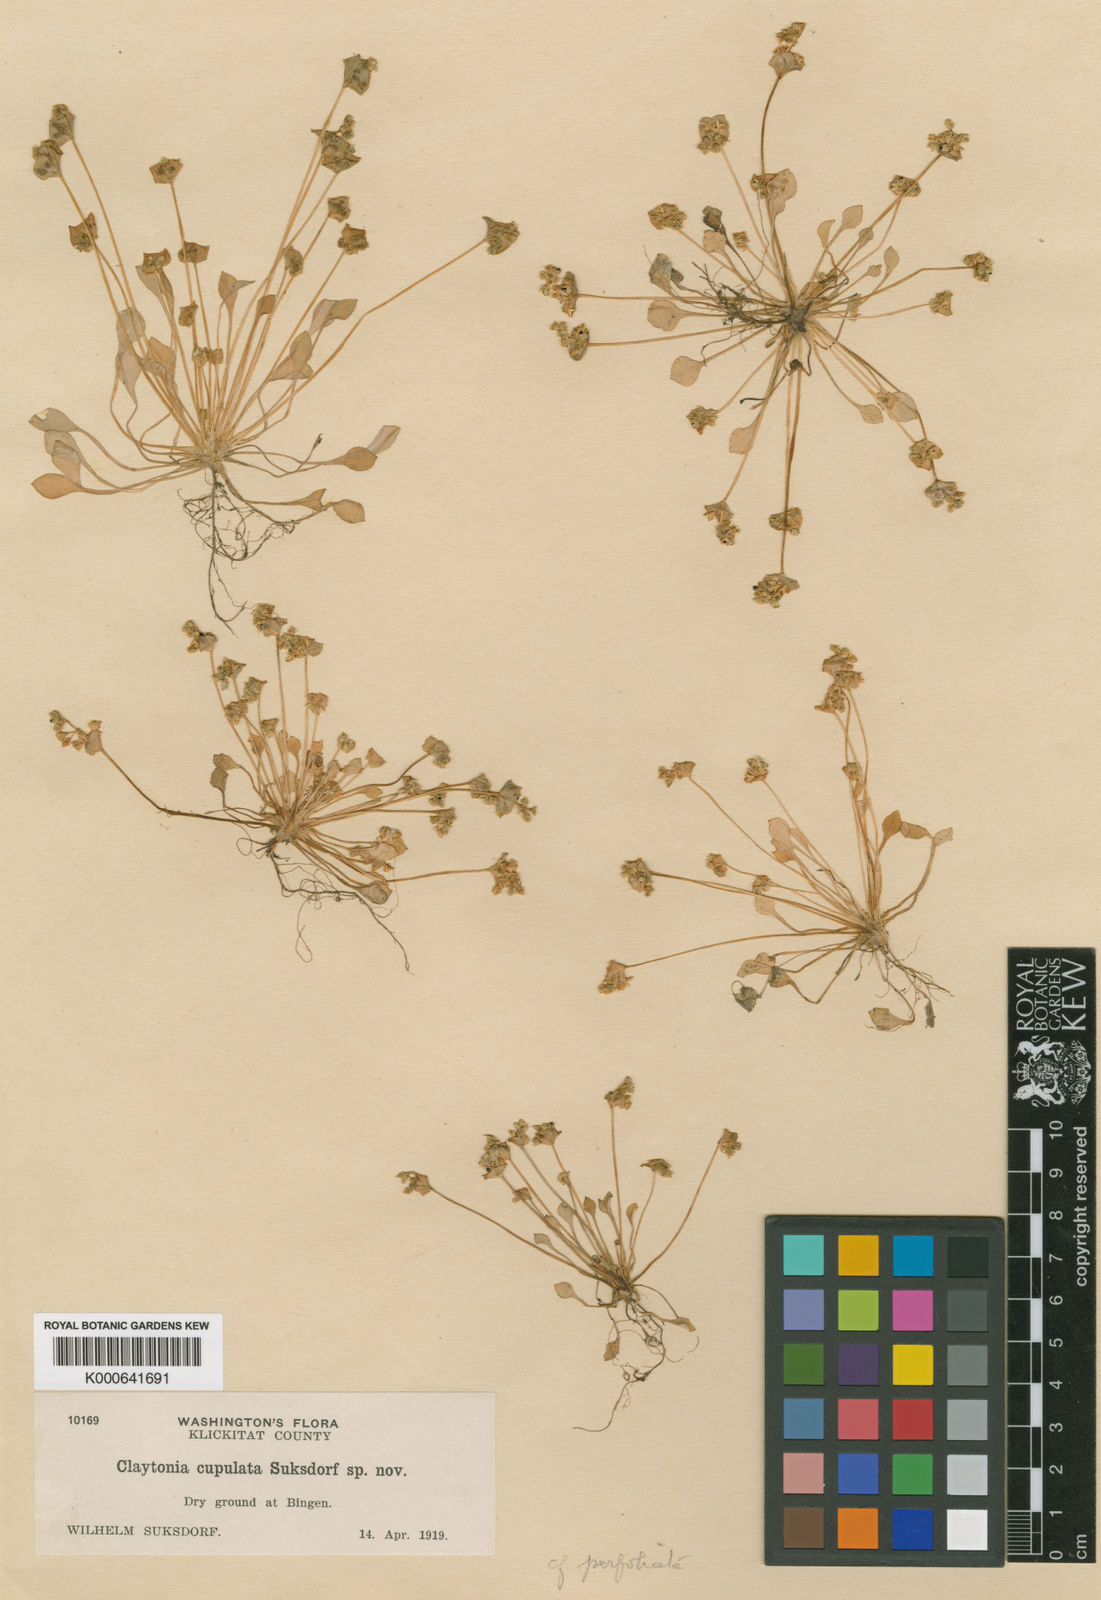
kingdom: Plantae
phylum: Tracheophyta
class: Magnoliopsida
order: Caryophyllales
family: Montiaceae
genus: Claytonia
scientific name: Claytonia rubra
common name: Erubescent miner's-lettuce
